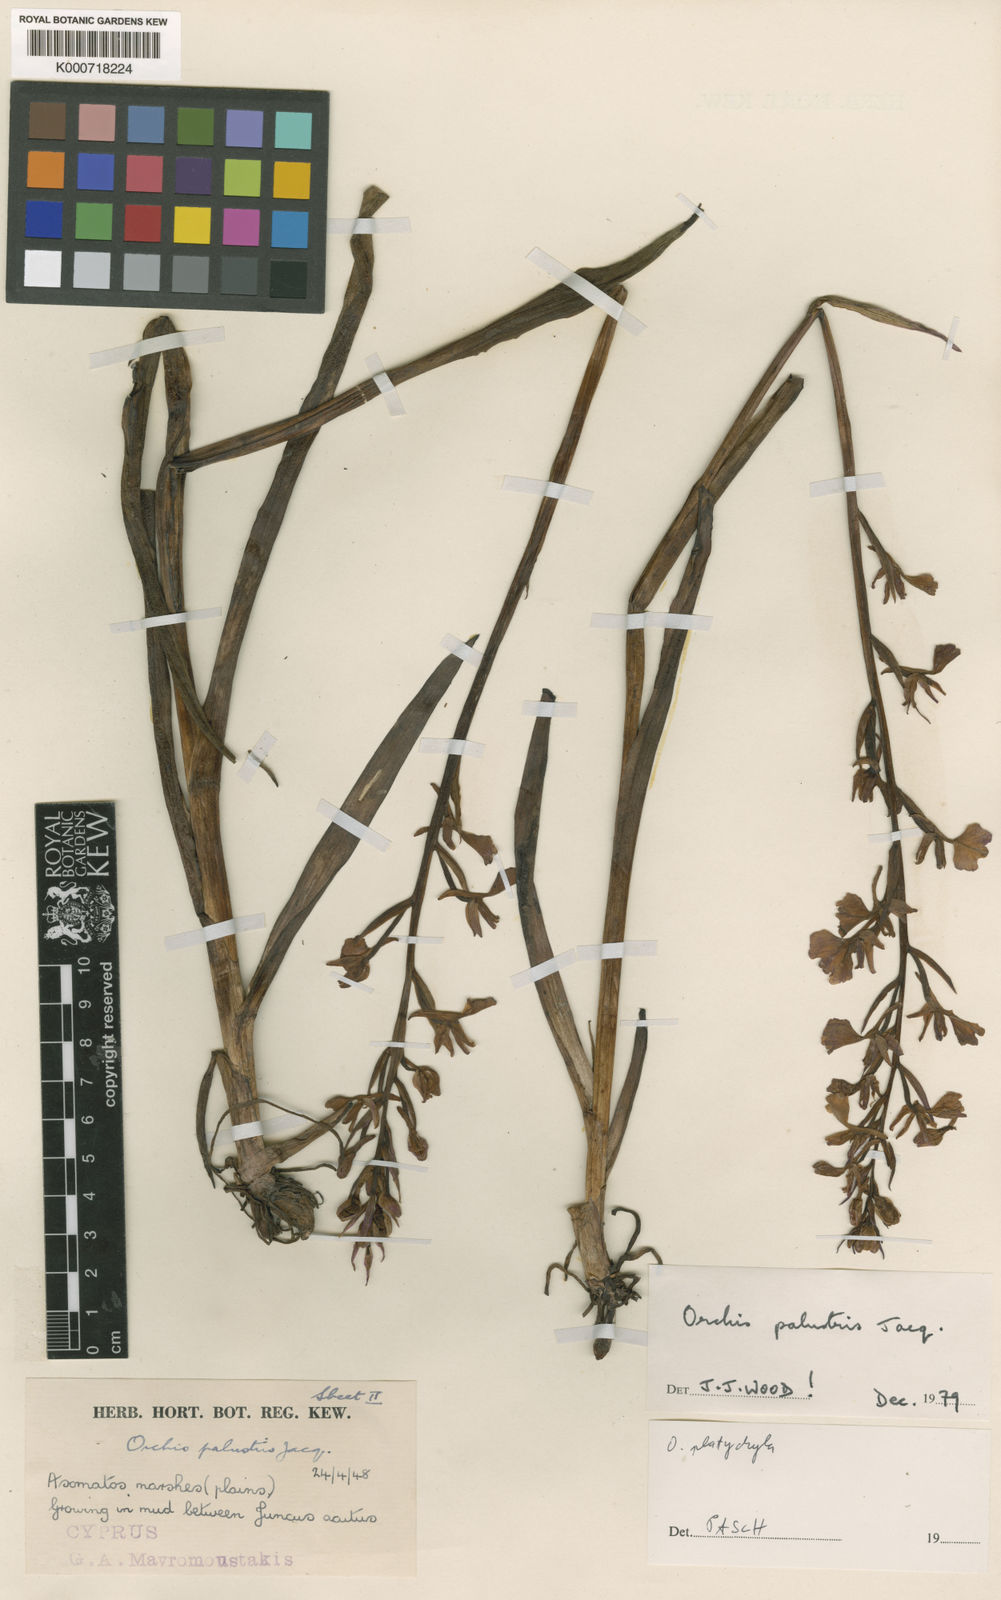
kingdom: Plantae
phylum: Tracheophyta
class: Liliopsida
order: Asparagales
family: Orchidaceae
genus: Anacamptis
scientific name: Anacamptis palustris
